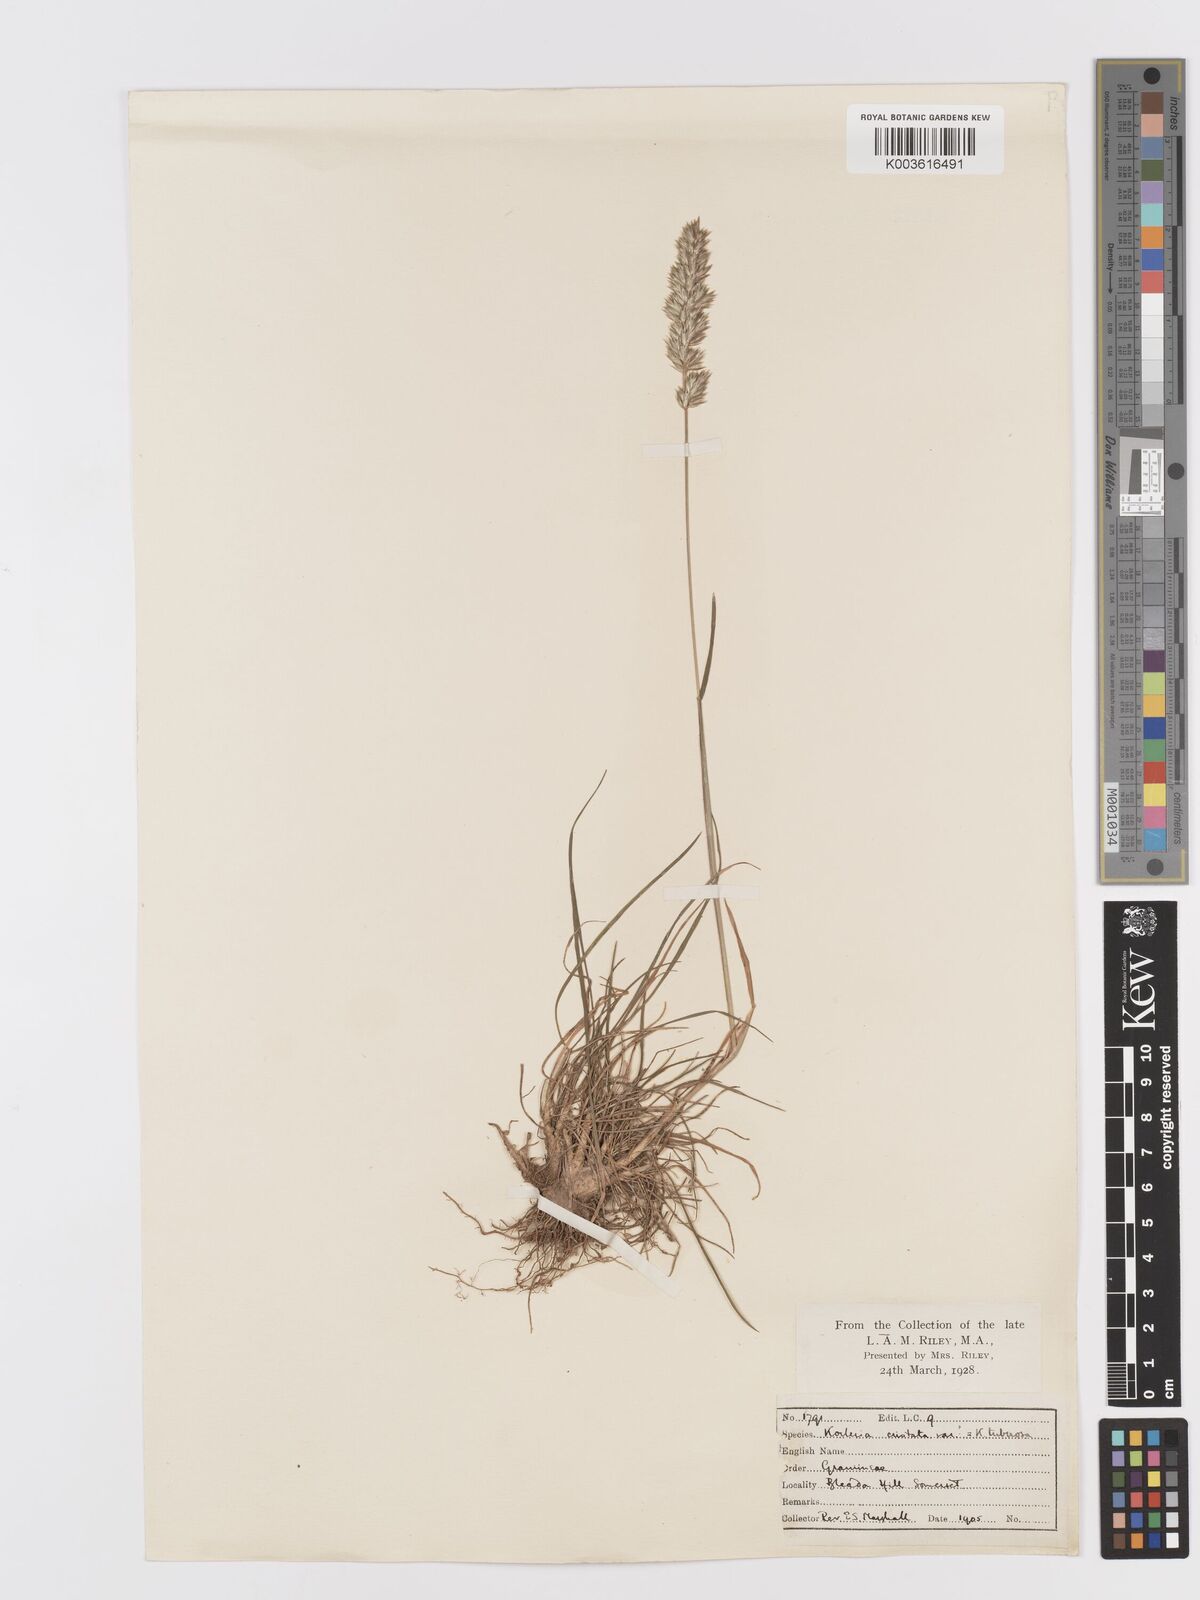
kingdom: Plantae
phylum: Tracheophyta
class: Liliopsida
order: Poales
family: Poaceae
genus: Koeleria
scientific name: Koeleria vallesiana
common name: Somerset hair-grass
